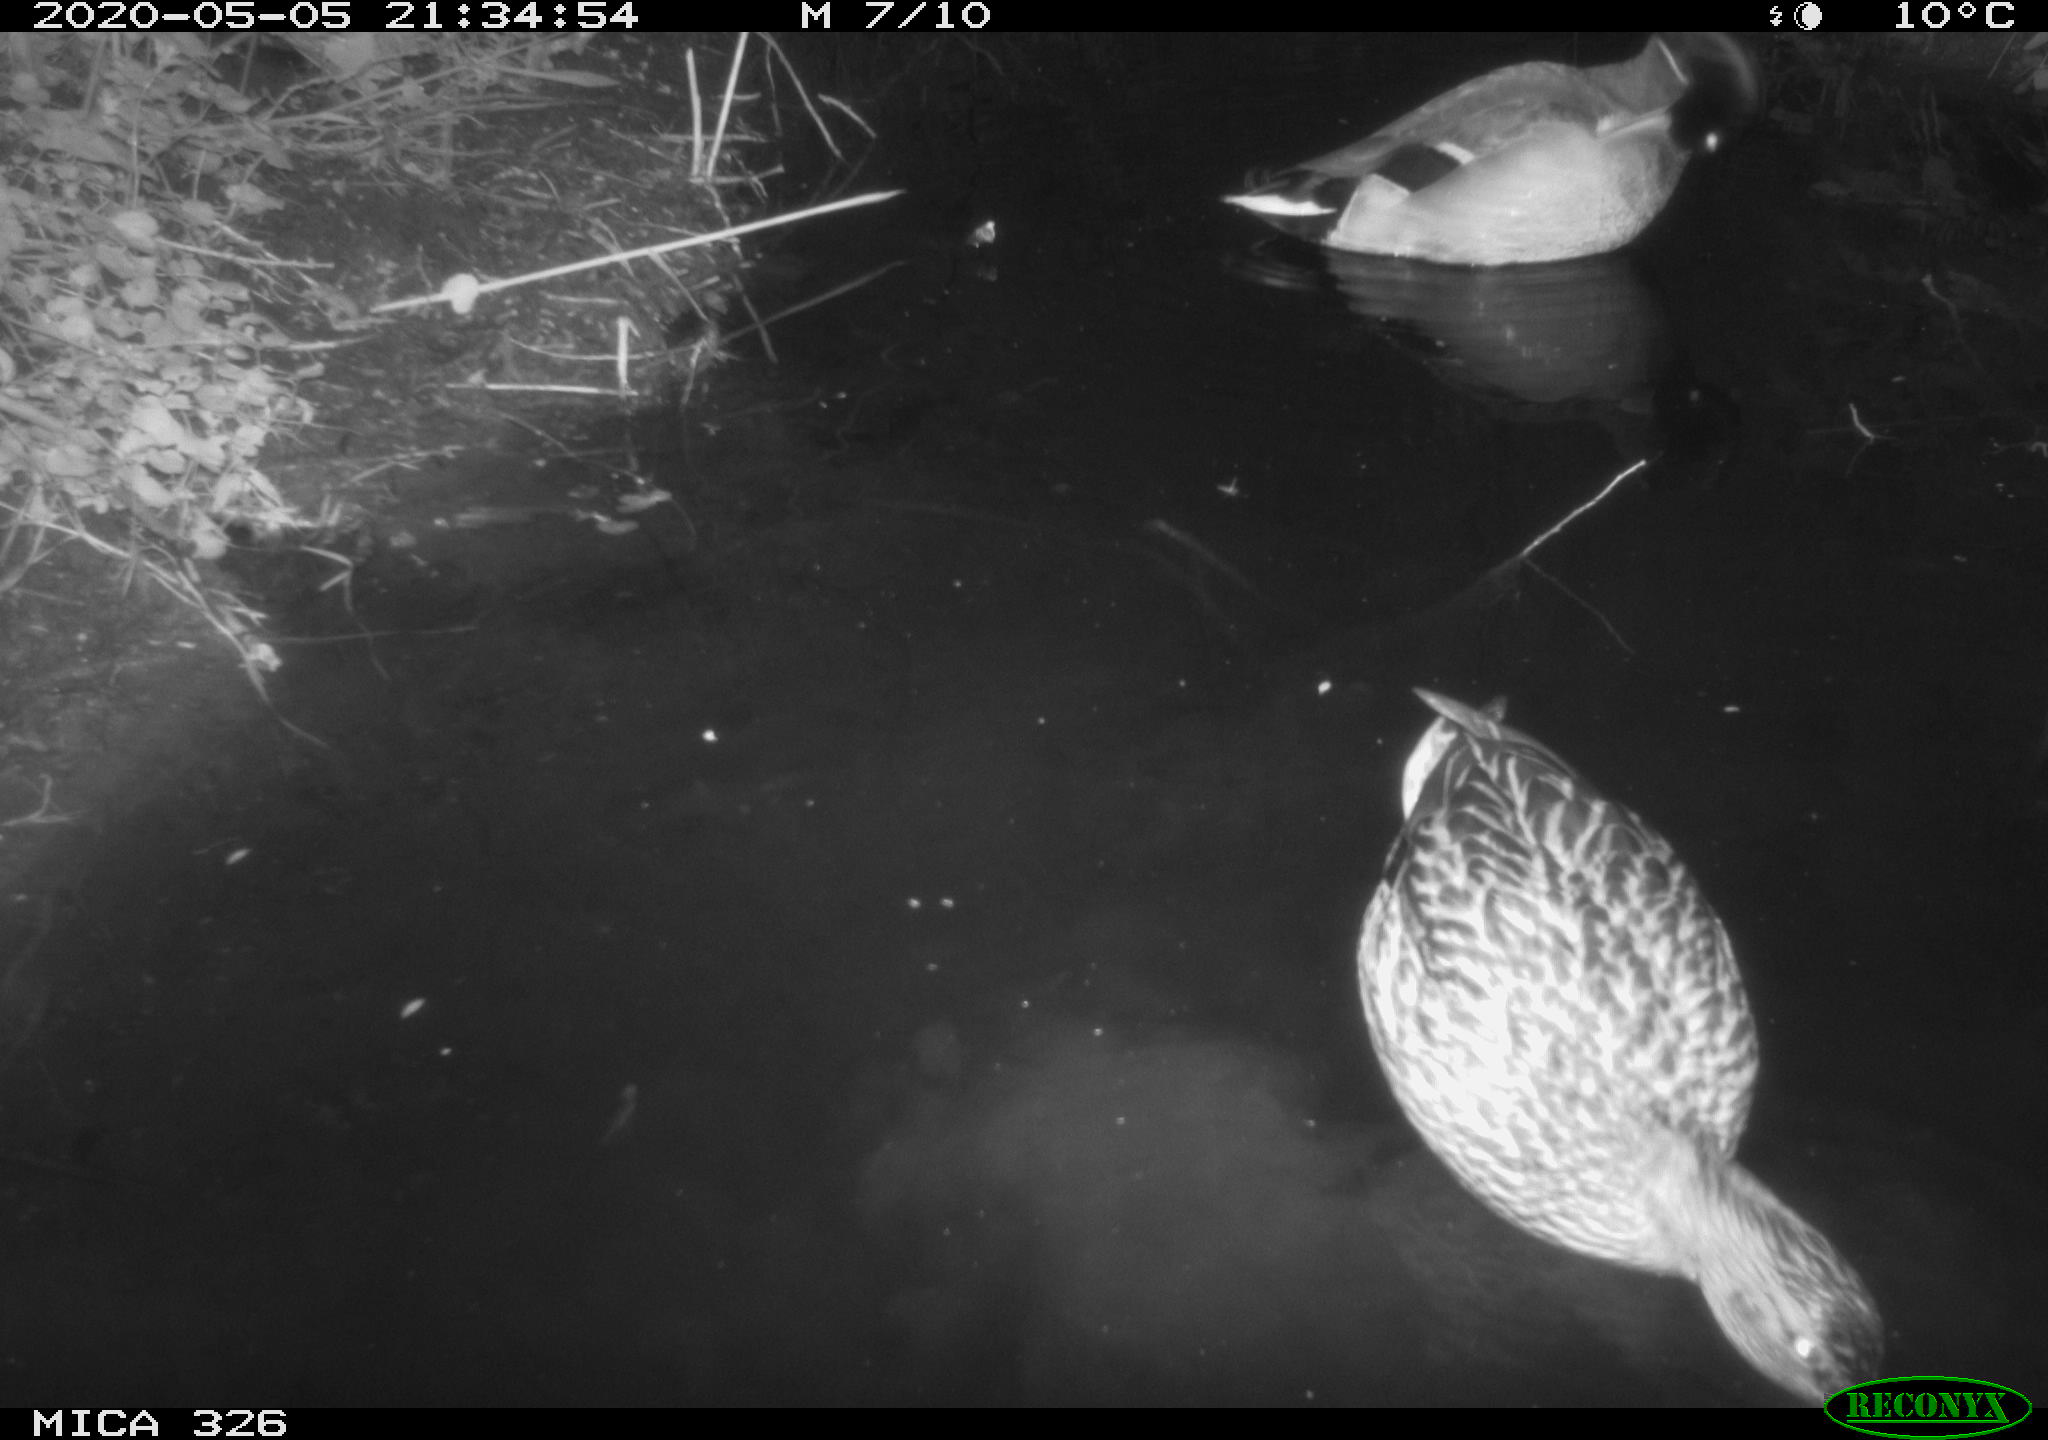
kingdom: Animalia
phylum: Chordata
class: Aves
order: Anseriformes
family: Anatidae
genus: Anas
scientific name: Anas platyrhynchos
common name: Mallard
